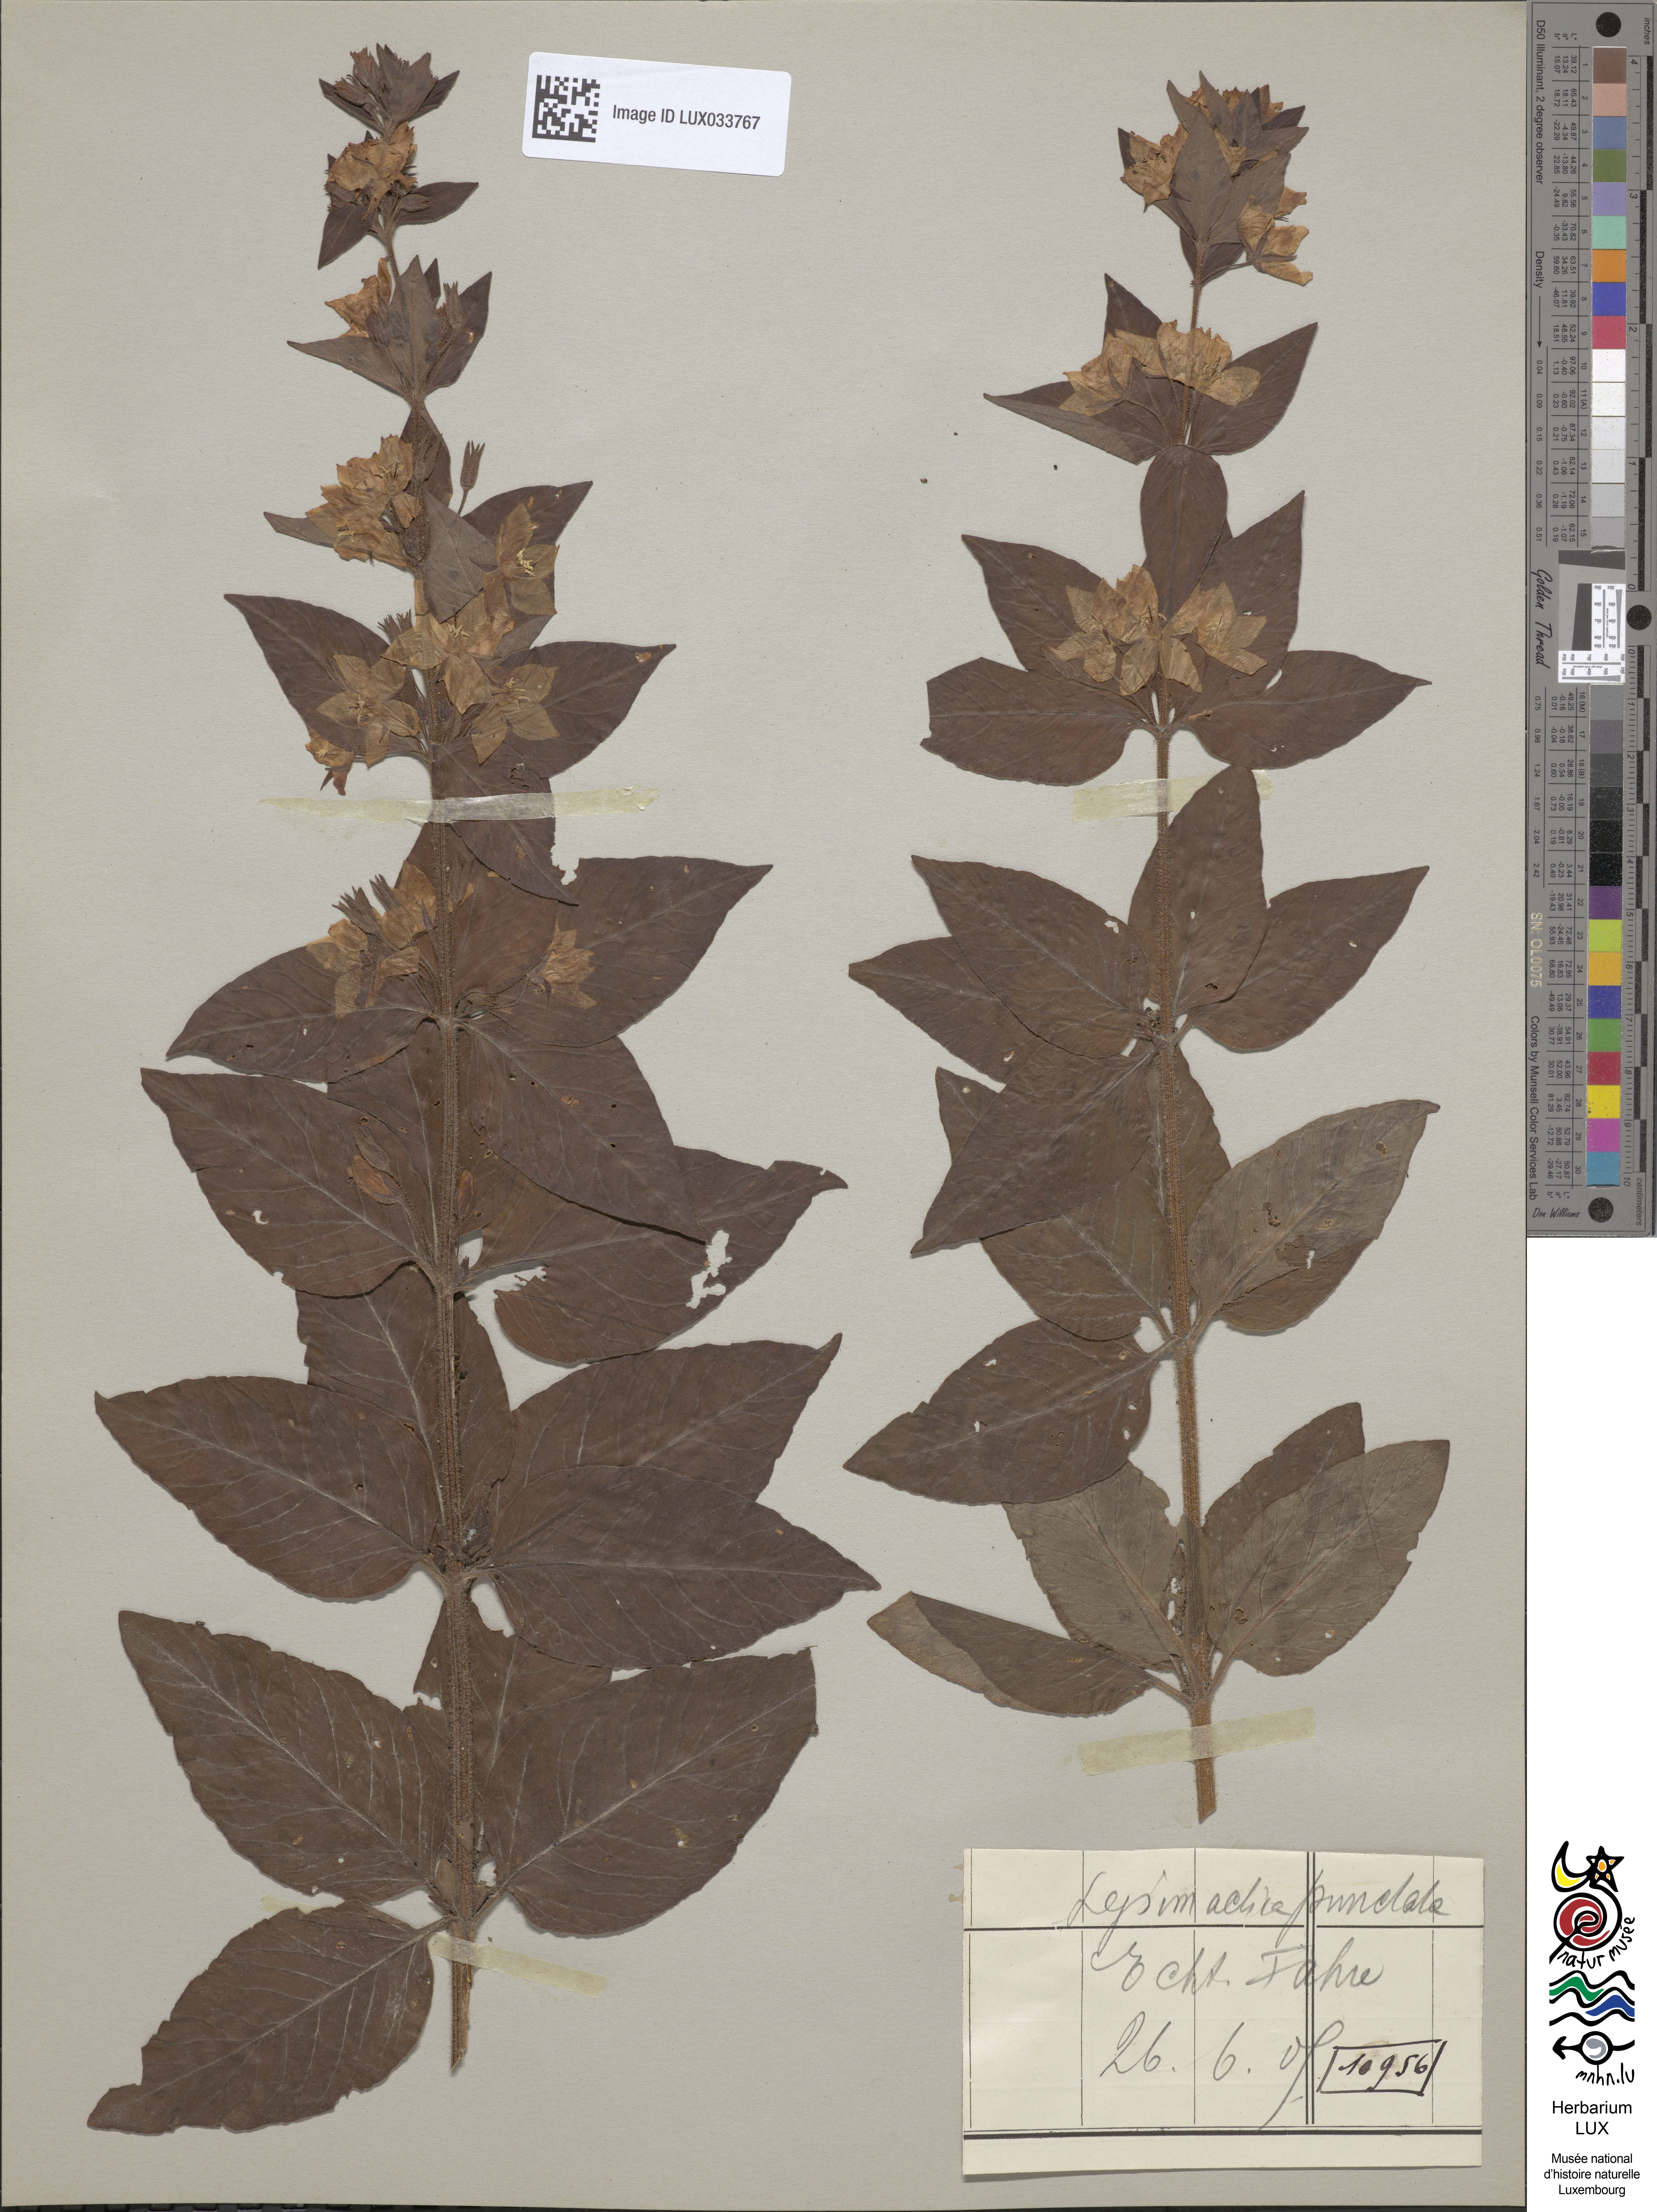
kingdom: Plantae
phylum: Tracheophyta
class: Magnoliopsida
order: Ericales
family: Primulaceae
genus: Lysimachia
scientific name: Lysimachia punctata
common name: Dotted loosestrife
